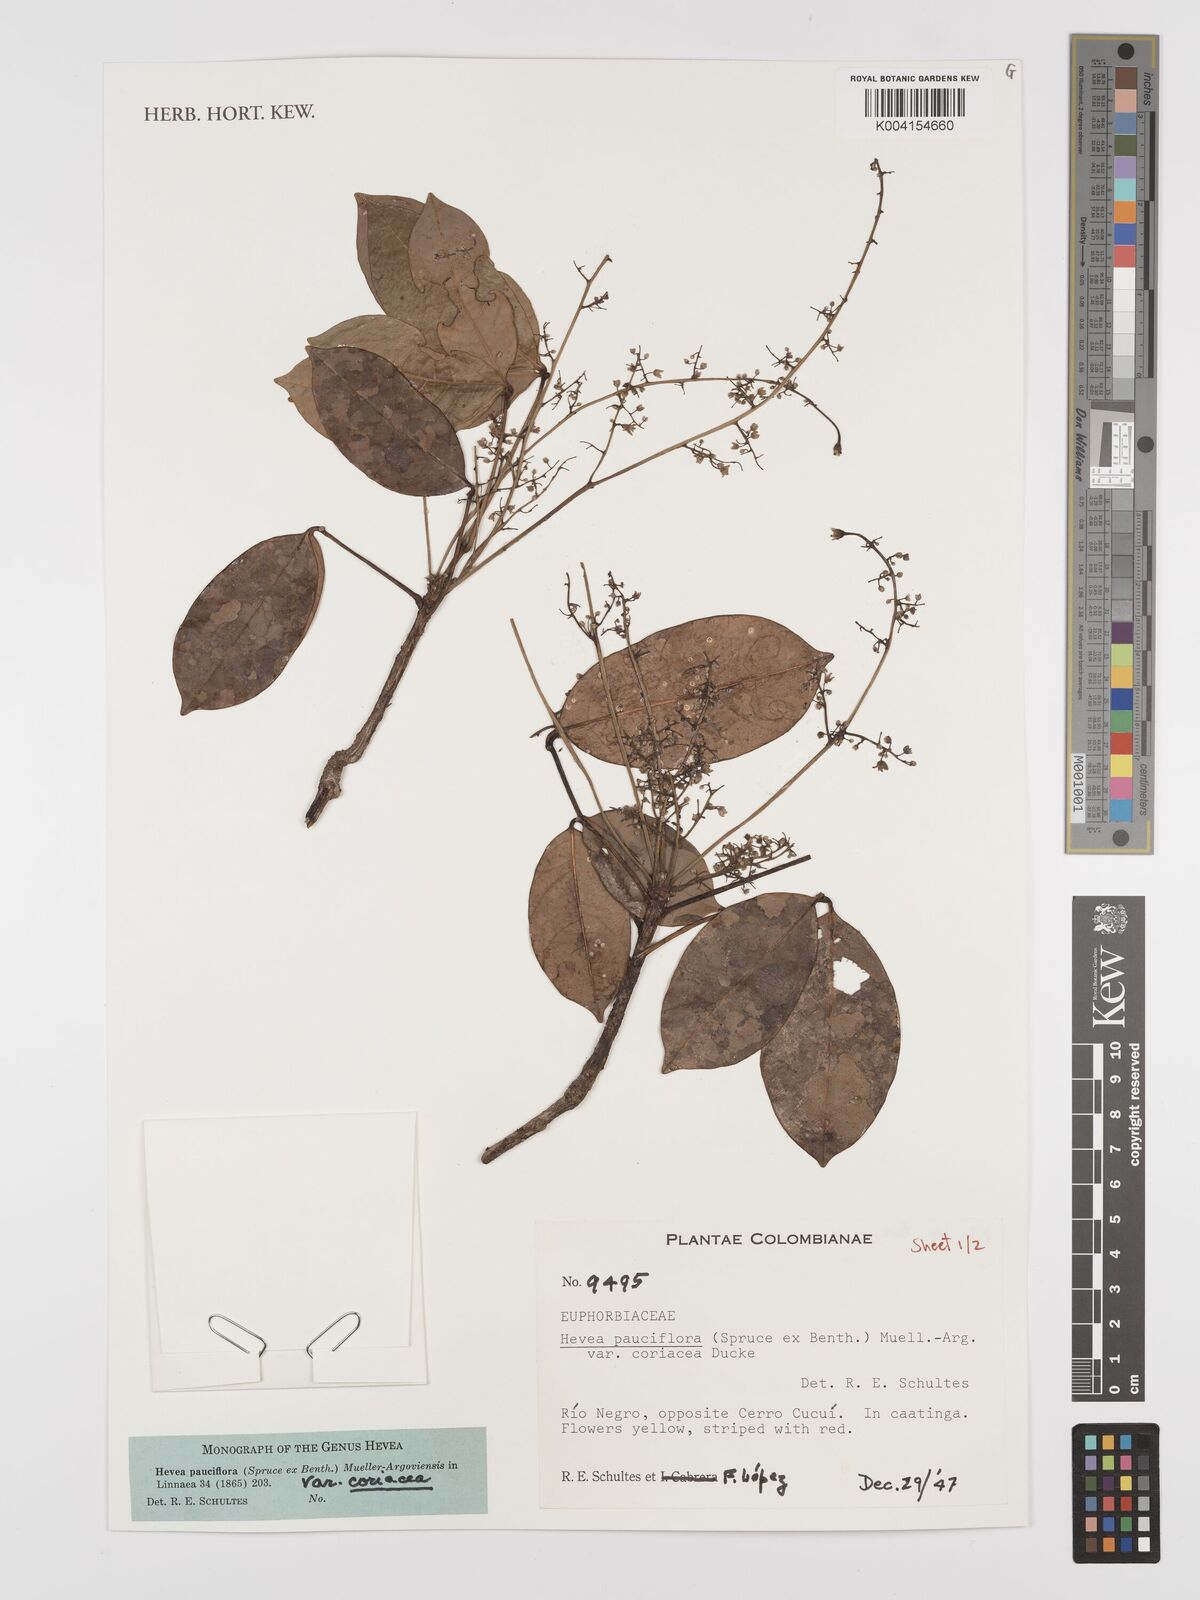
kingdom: Plantae
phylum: Tracheophyta
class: Magnoliopsida
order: Malpighiales
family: Euphorbiaceae
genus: Hevea
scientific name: Hevea pauciflora
